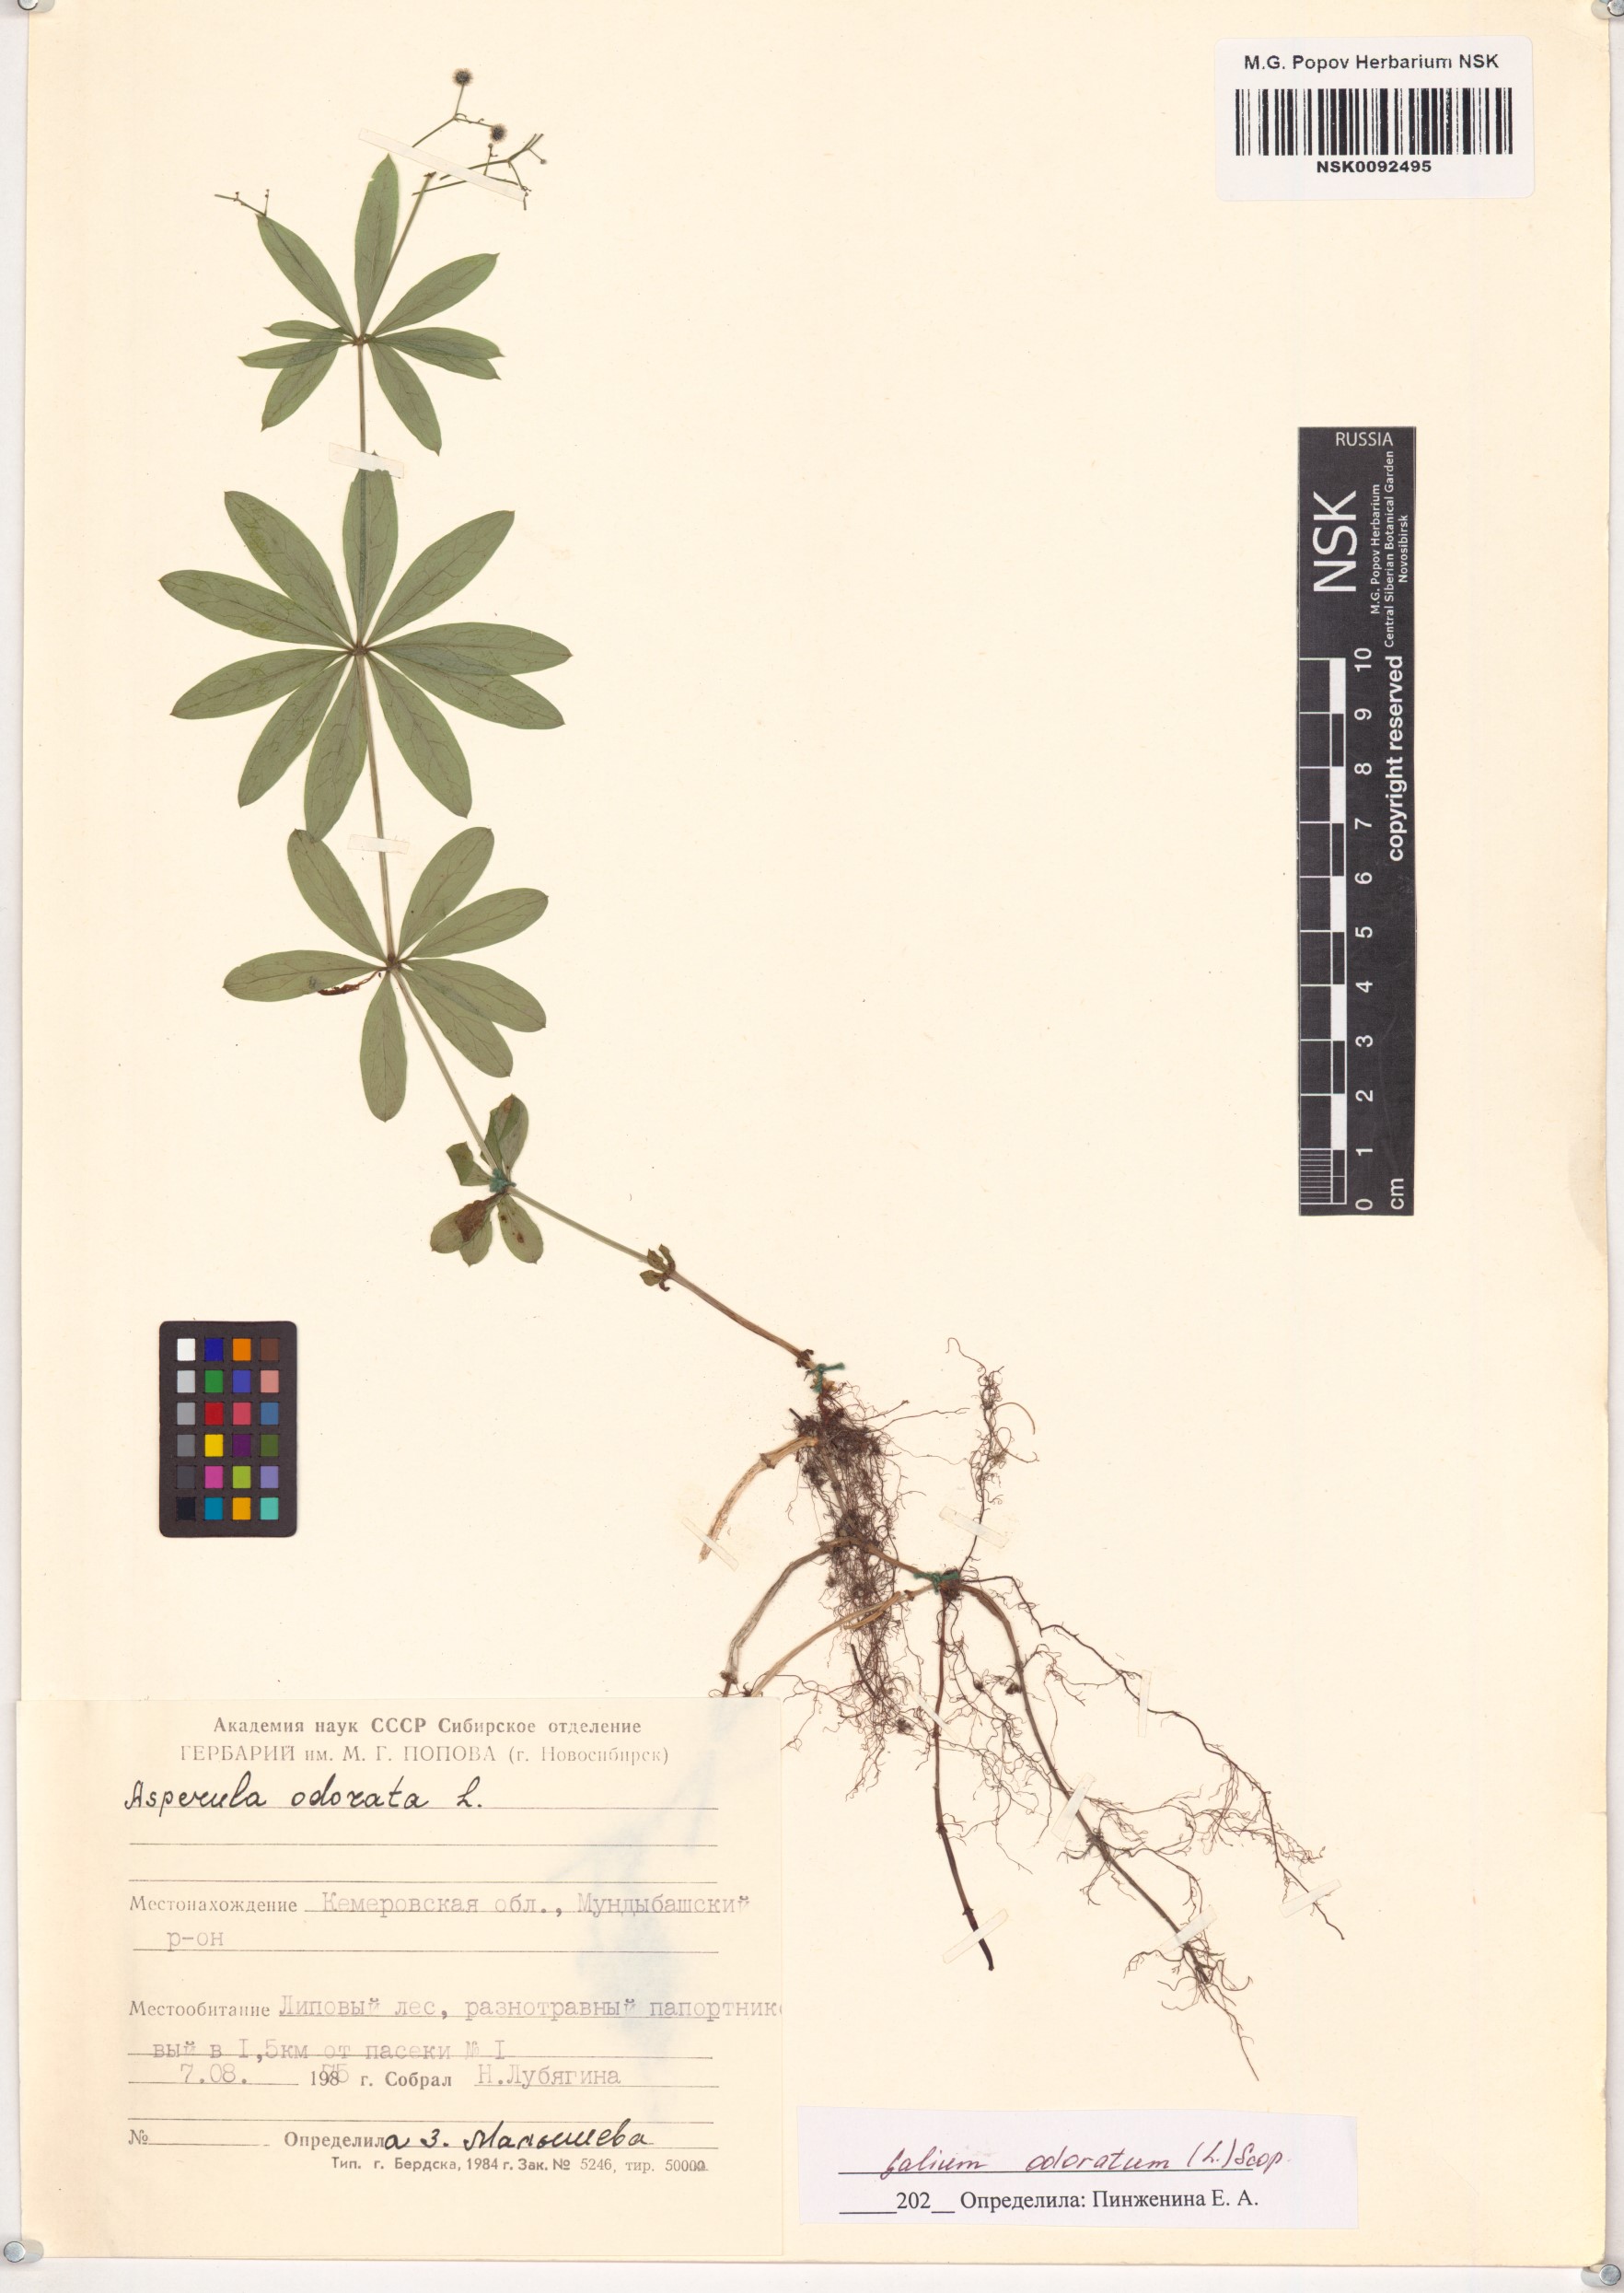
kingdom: Plantae
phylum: Tracheophyta
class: Magnoliopsida
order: Gentianales
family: Rubiaceae
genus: Galium
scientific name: Galium odoratum
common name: Sweet woodruff
